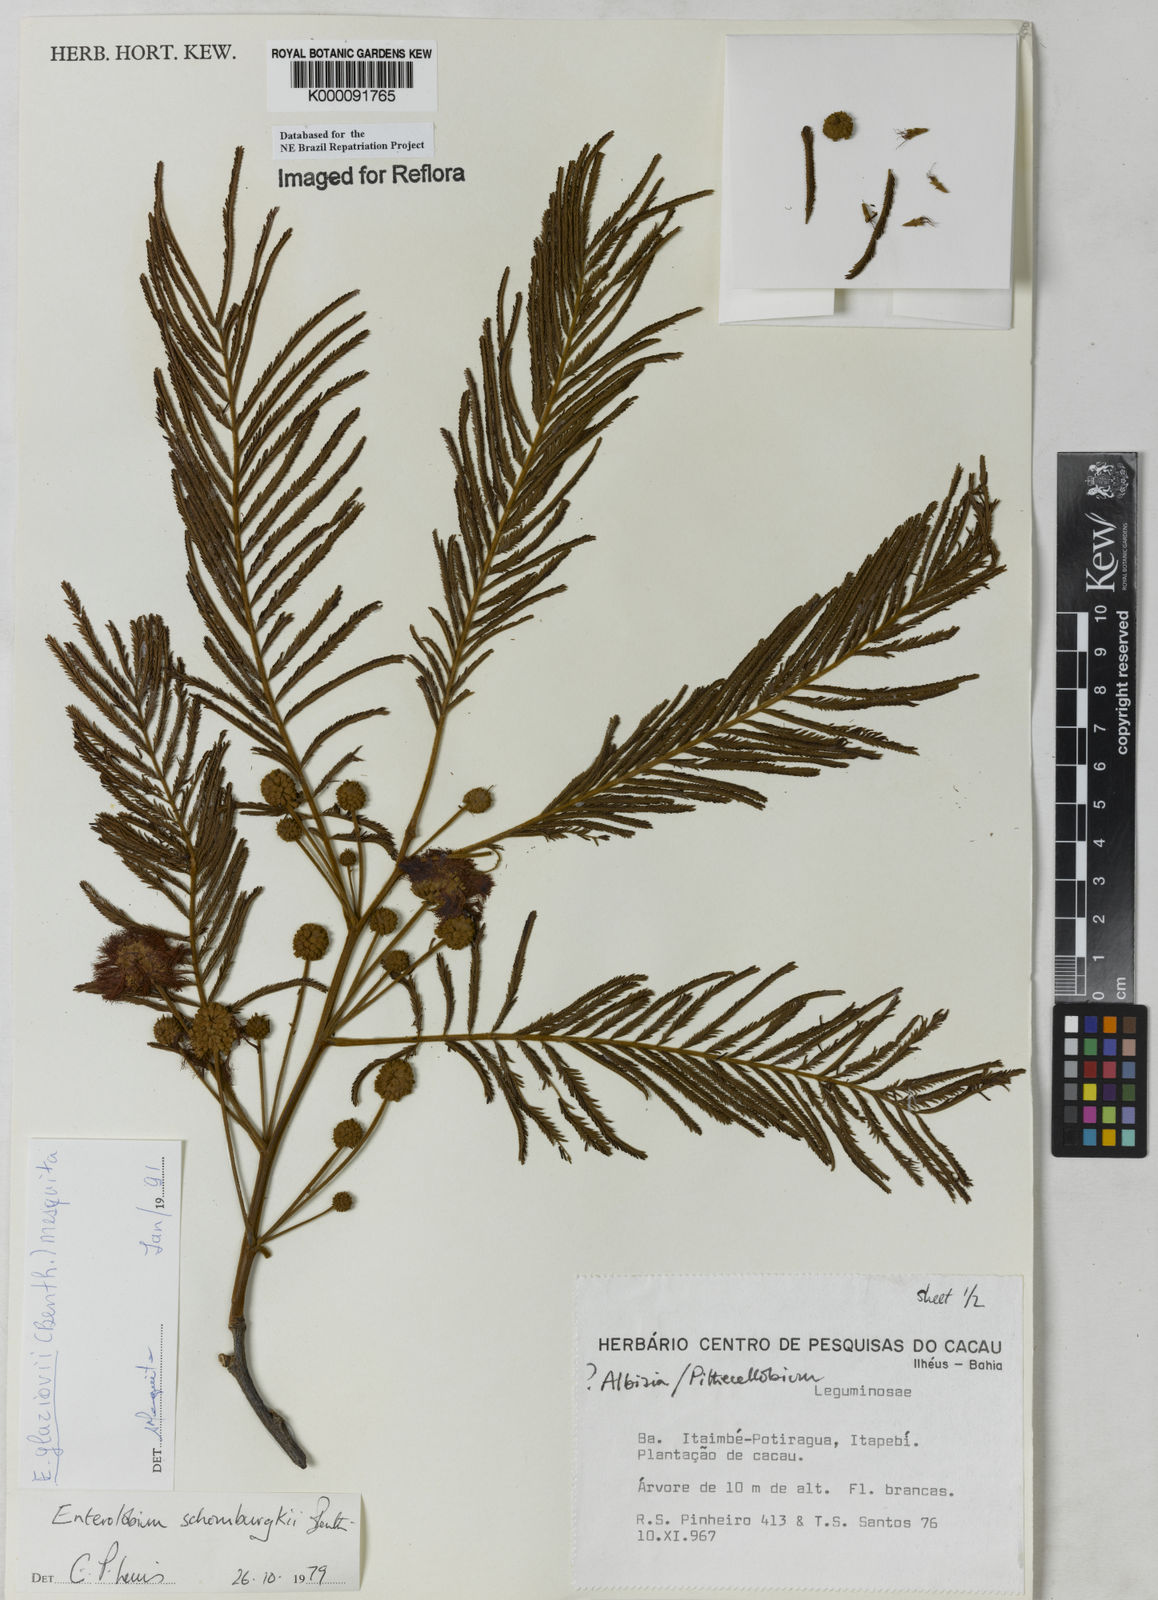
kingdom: Plantae
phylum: Tracheophyta
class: Magnoliopsida
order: Fabales
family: Fabaceae
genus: Enterolobium
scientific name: Enterolobium glaziovii
